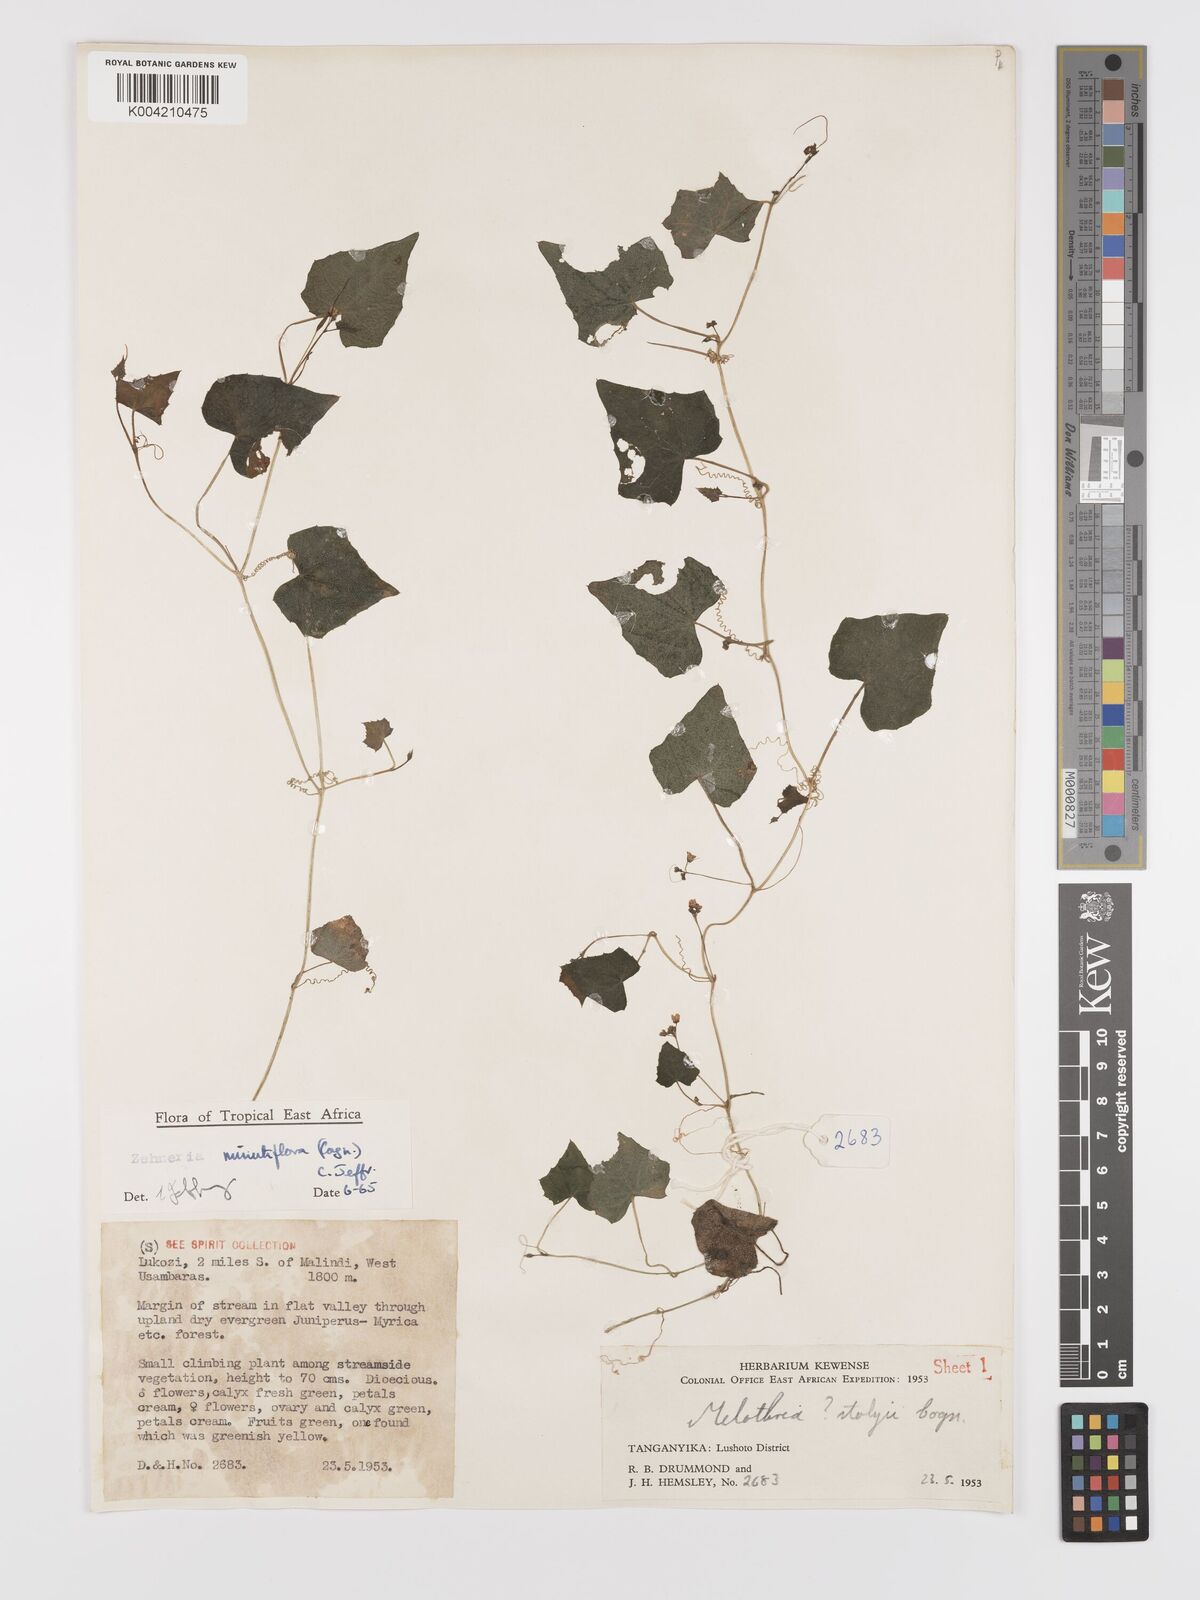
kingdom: Plantae
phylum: Tracheophyta
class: Magnoliopsida
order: Cucurbitales
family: Cucurbitaceae
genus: Zehneria
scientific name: Zehneria minutiflora
